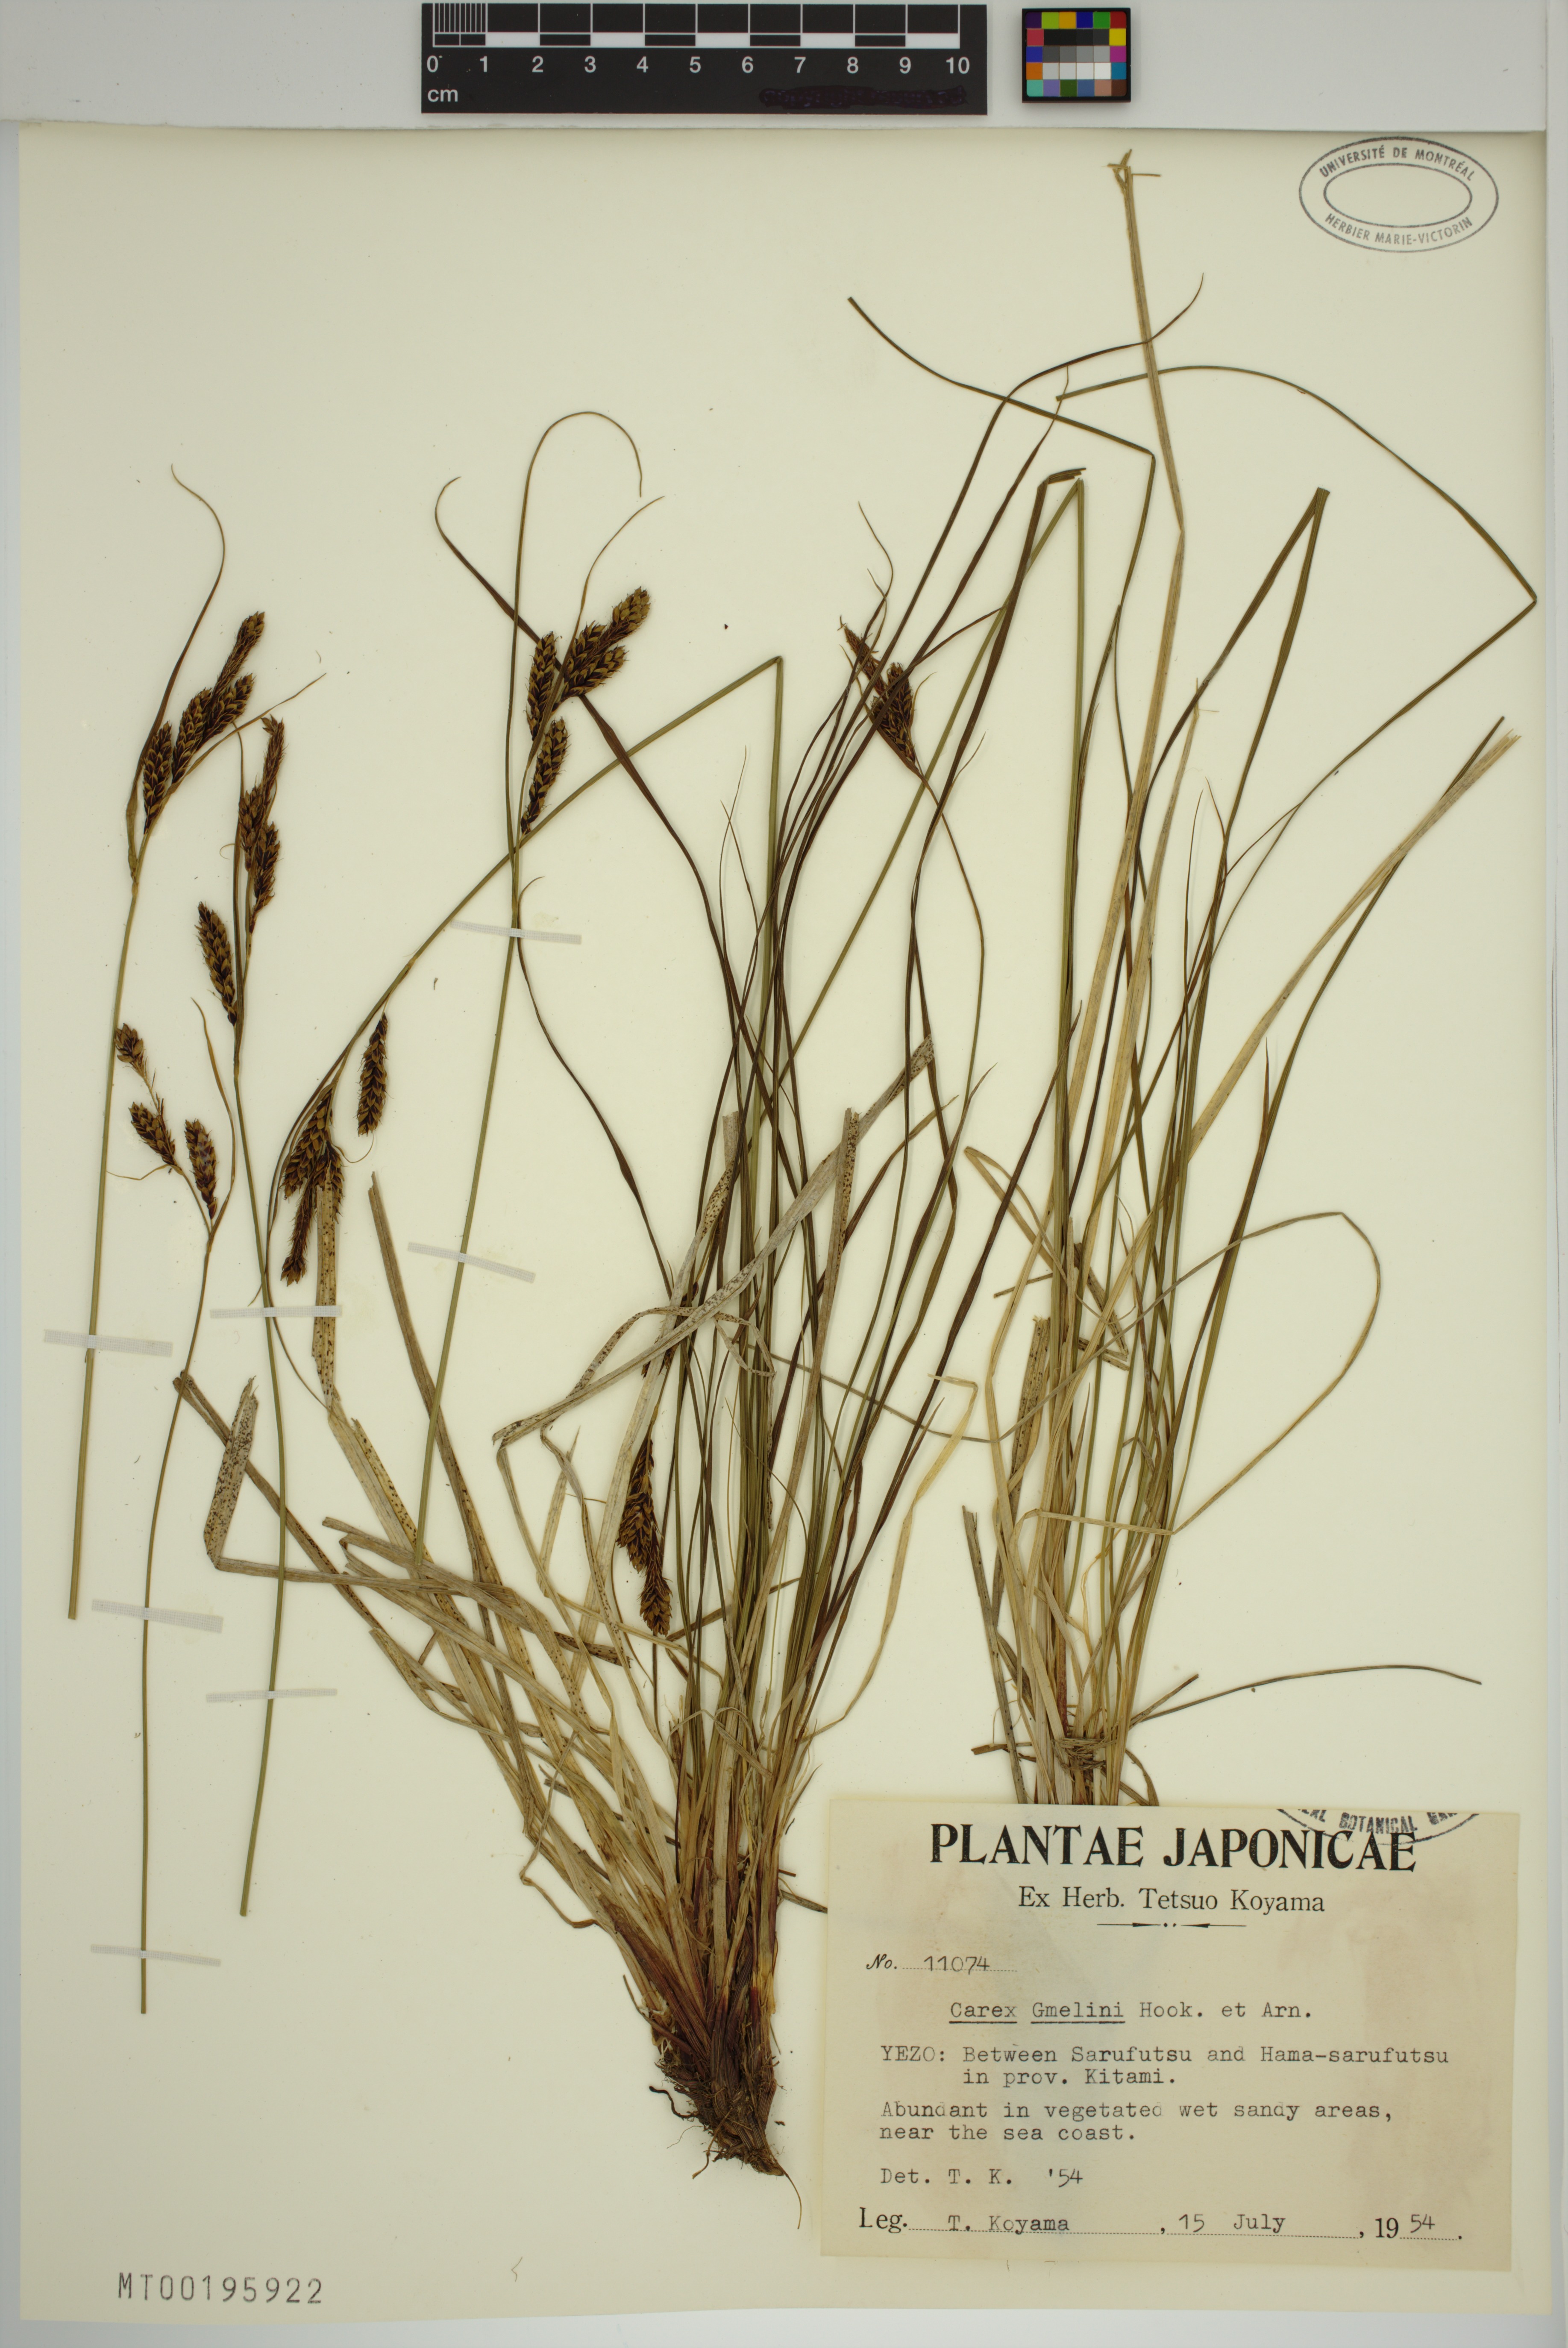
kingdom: Plantae
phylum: Tracheophyta
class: Liliopsida
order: Poales
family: Cyperaceae
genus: Carex
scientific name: Carex gmelinii
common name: Gmelin's sedge
